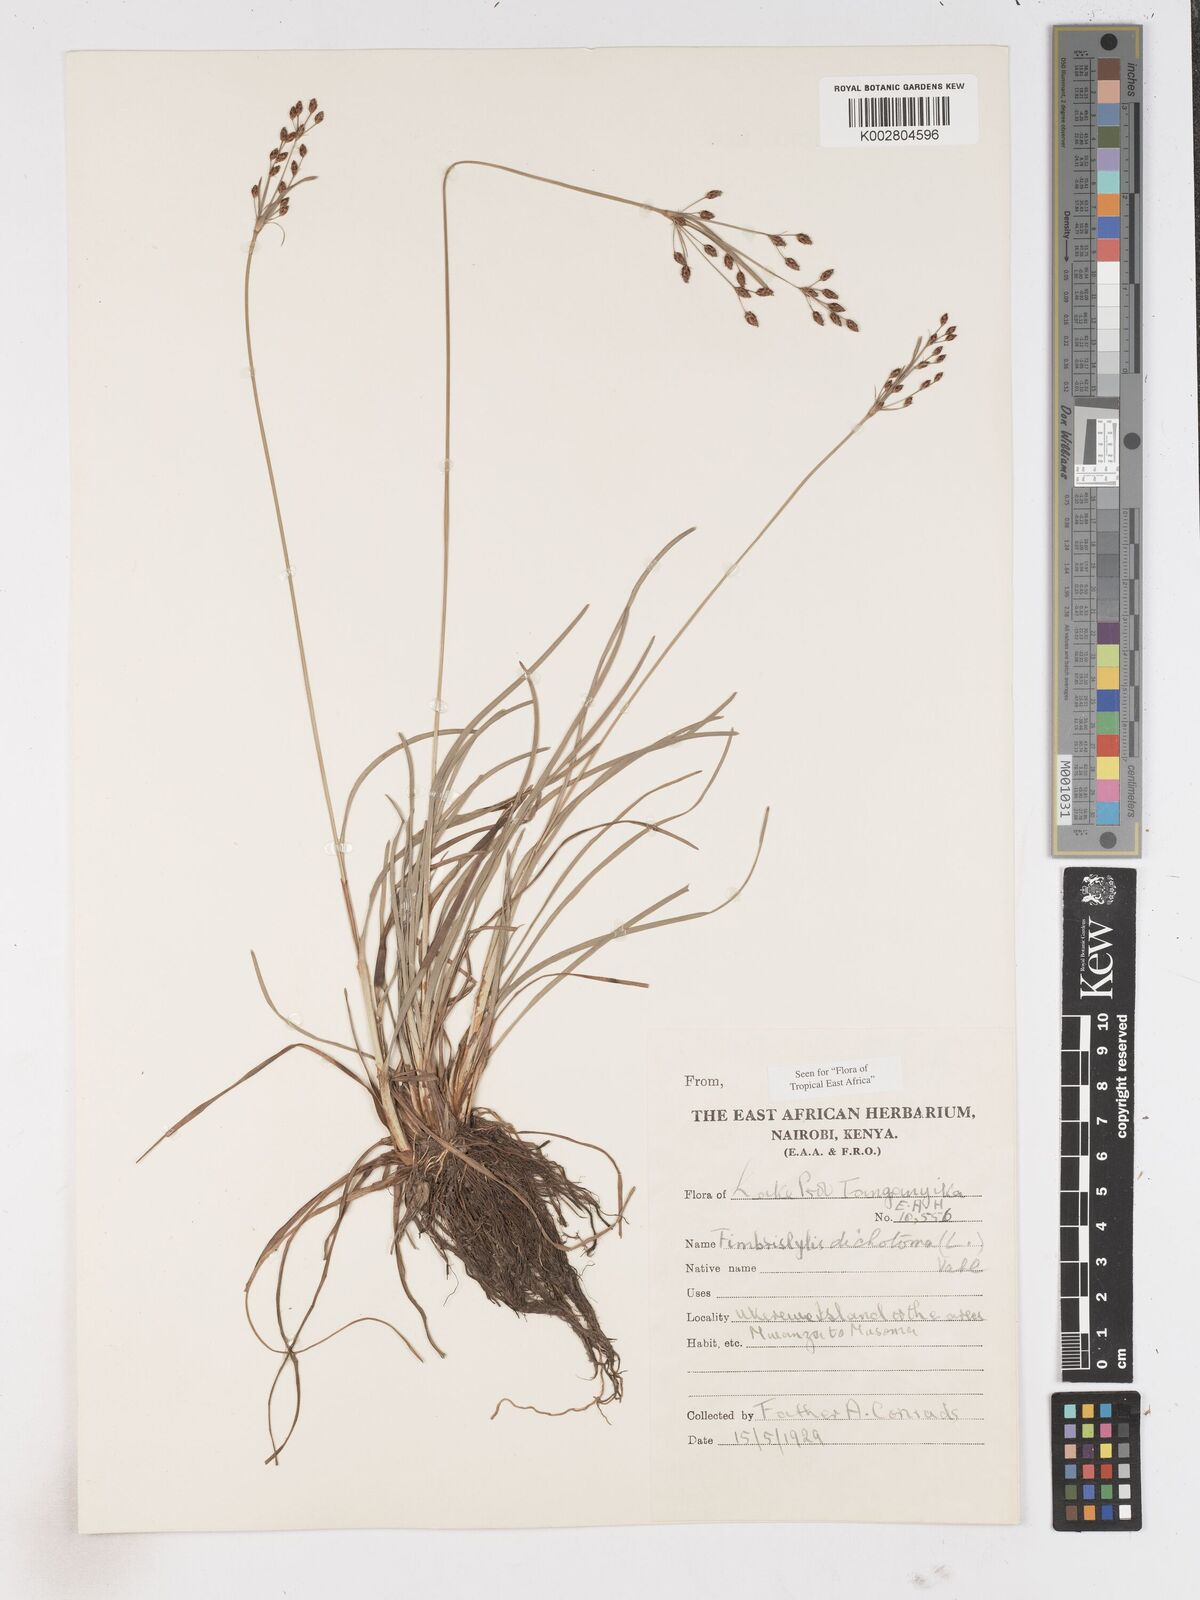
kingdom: Plantae
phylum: Tracheophyta
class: Liliopsida
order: Poales
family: Cyperaceae
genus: Fimbristylis
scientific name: Fimbristylis dichotoma
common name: Forked fimbry
